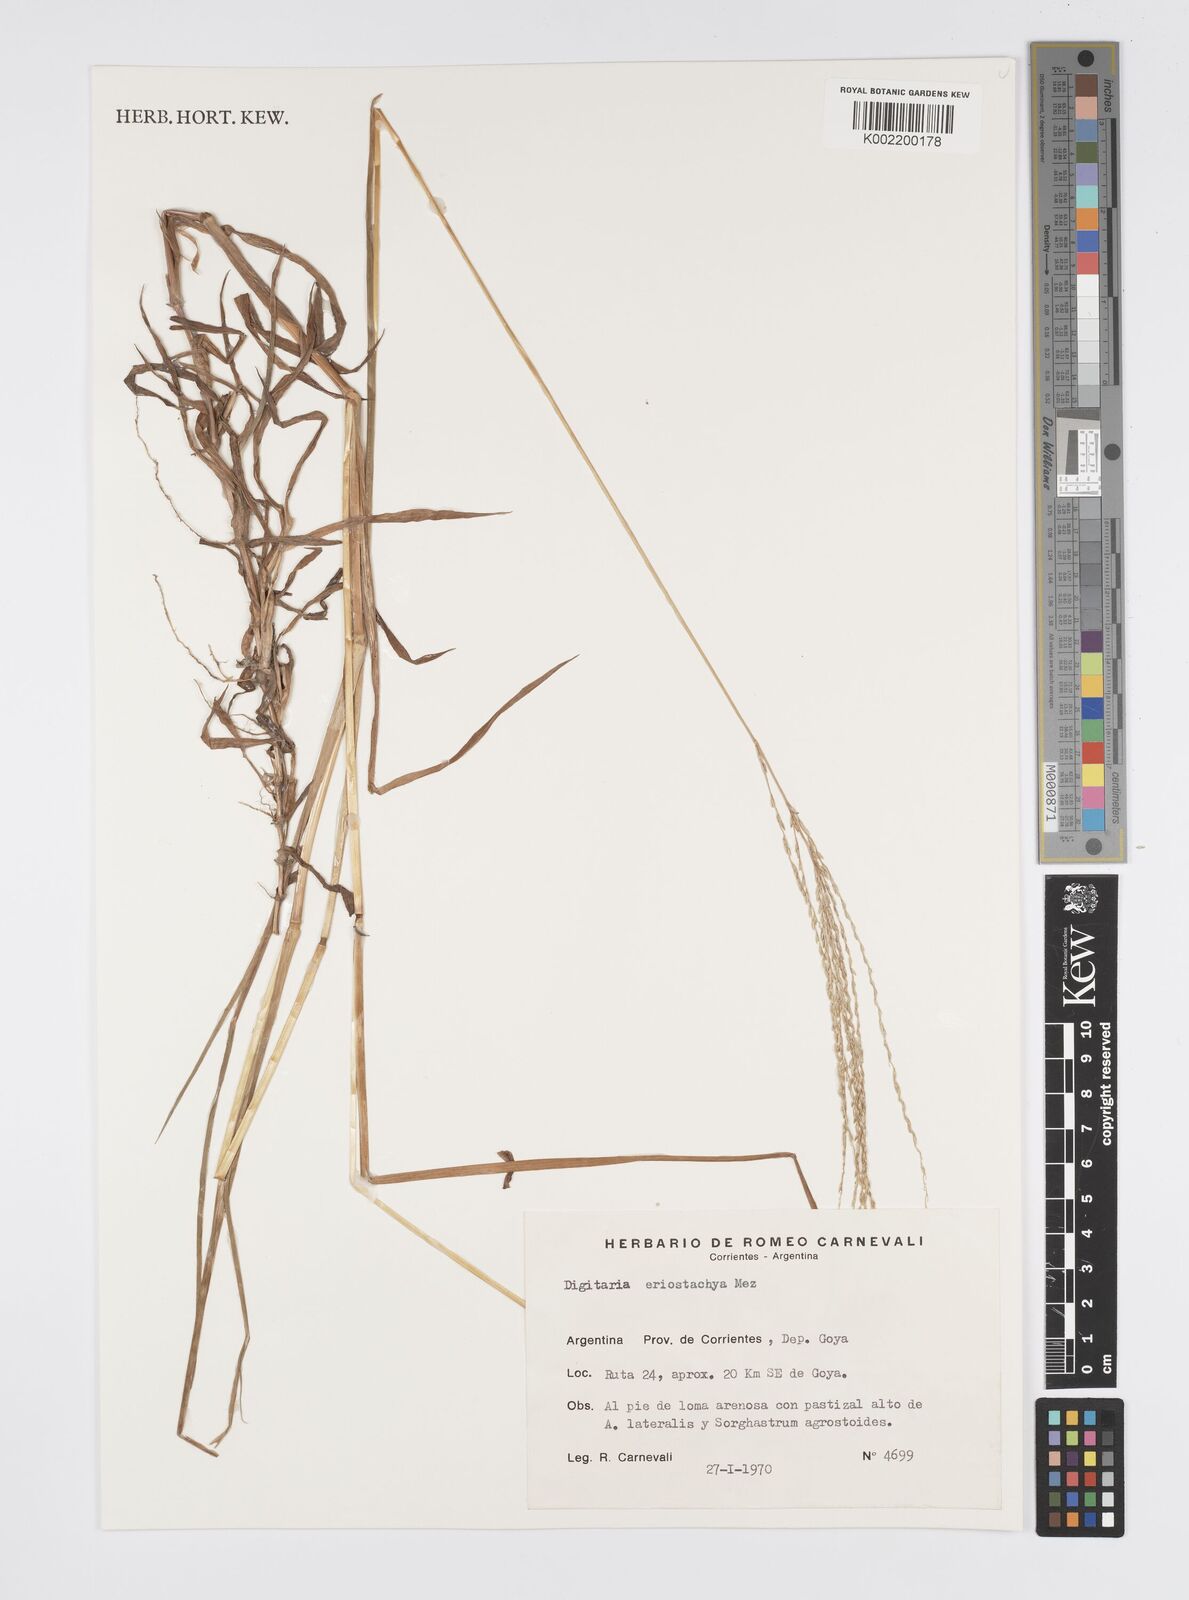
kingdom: Plantae
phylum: Tracheophyta
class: Liliopsida
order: Poales
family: Poaceae
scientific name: Poaceae
